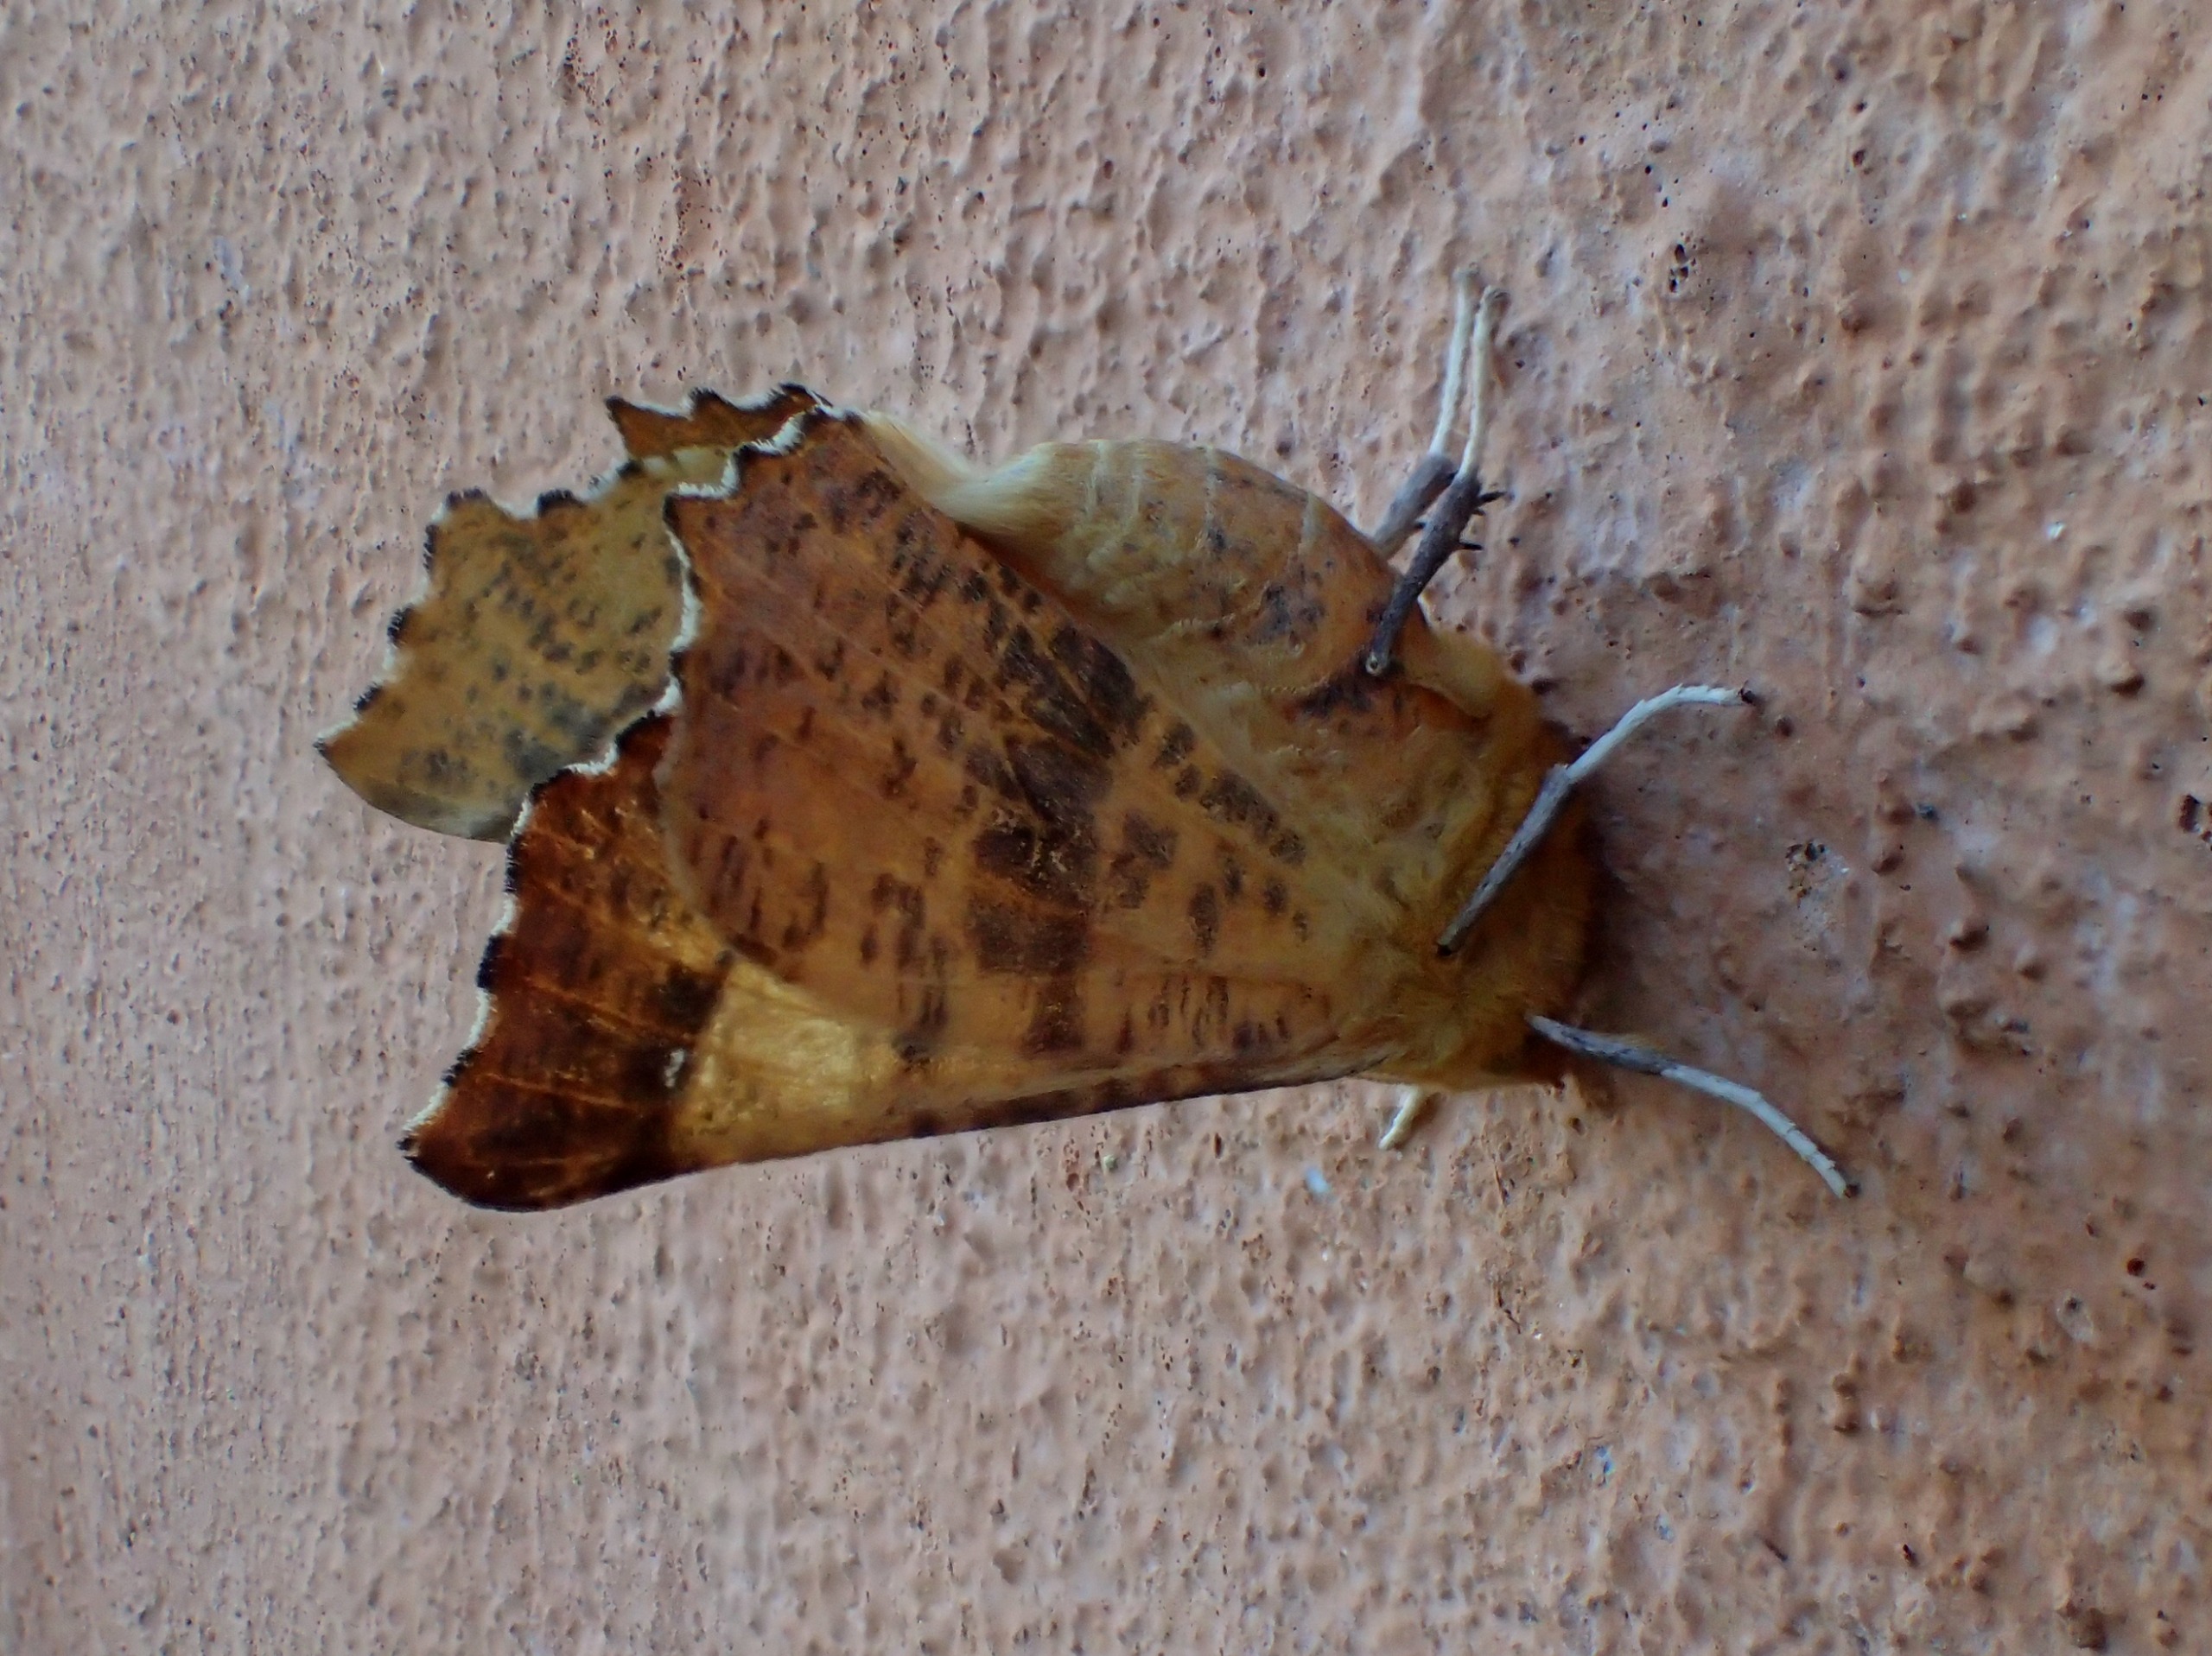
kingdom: Animalia
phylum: Arthropoda
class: Insecta
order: Lepidoptera
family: Geometridae
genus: Ennomos
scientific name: Ennomos autumnaria
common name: Stor tandmåler
